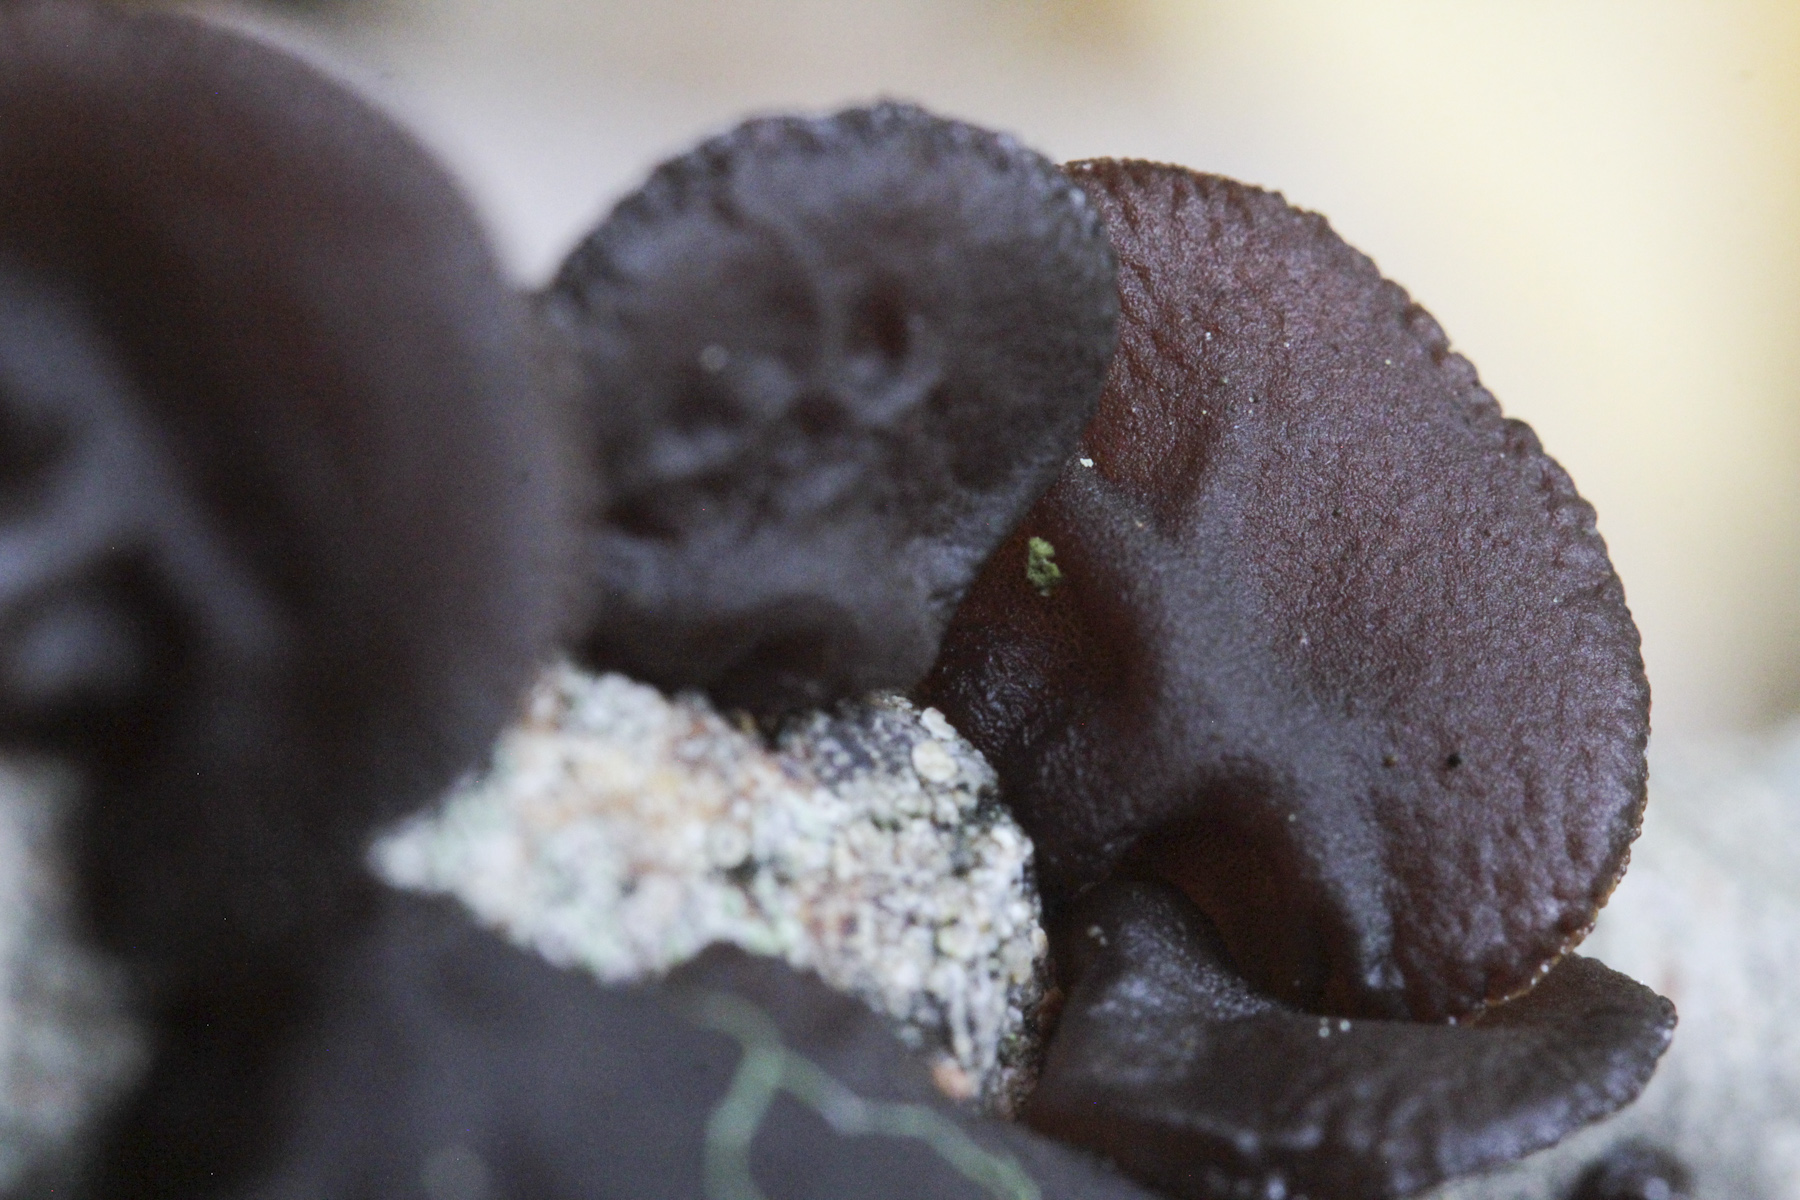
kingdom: Fungi
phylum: Basidiomycota
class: Tremellomycetes
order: Tremellales
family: Exidiaceae
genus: Exidia
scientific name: Exidia
